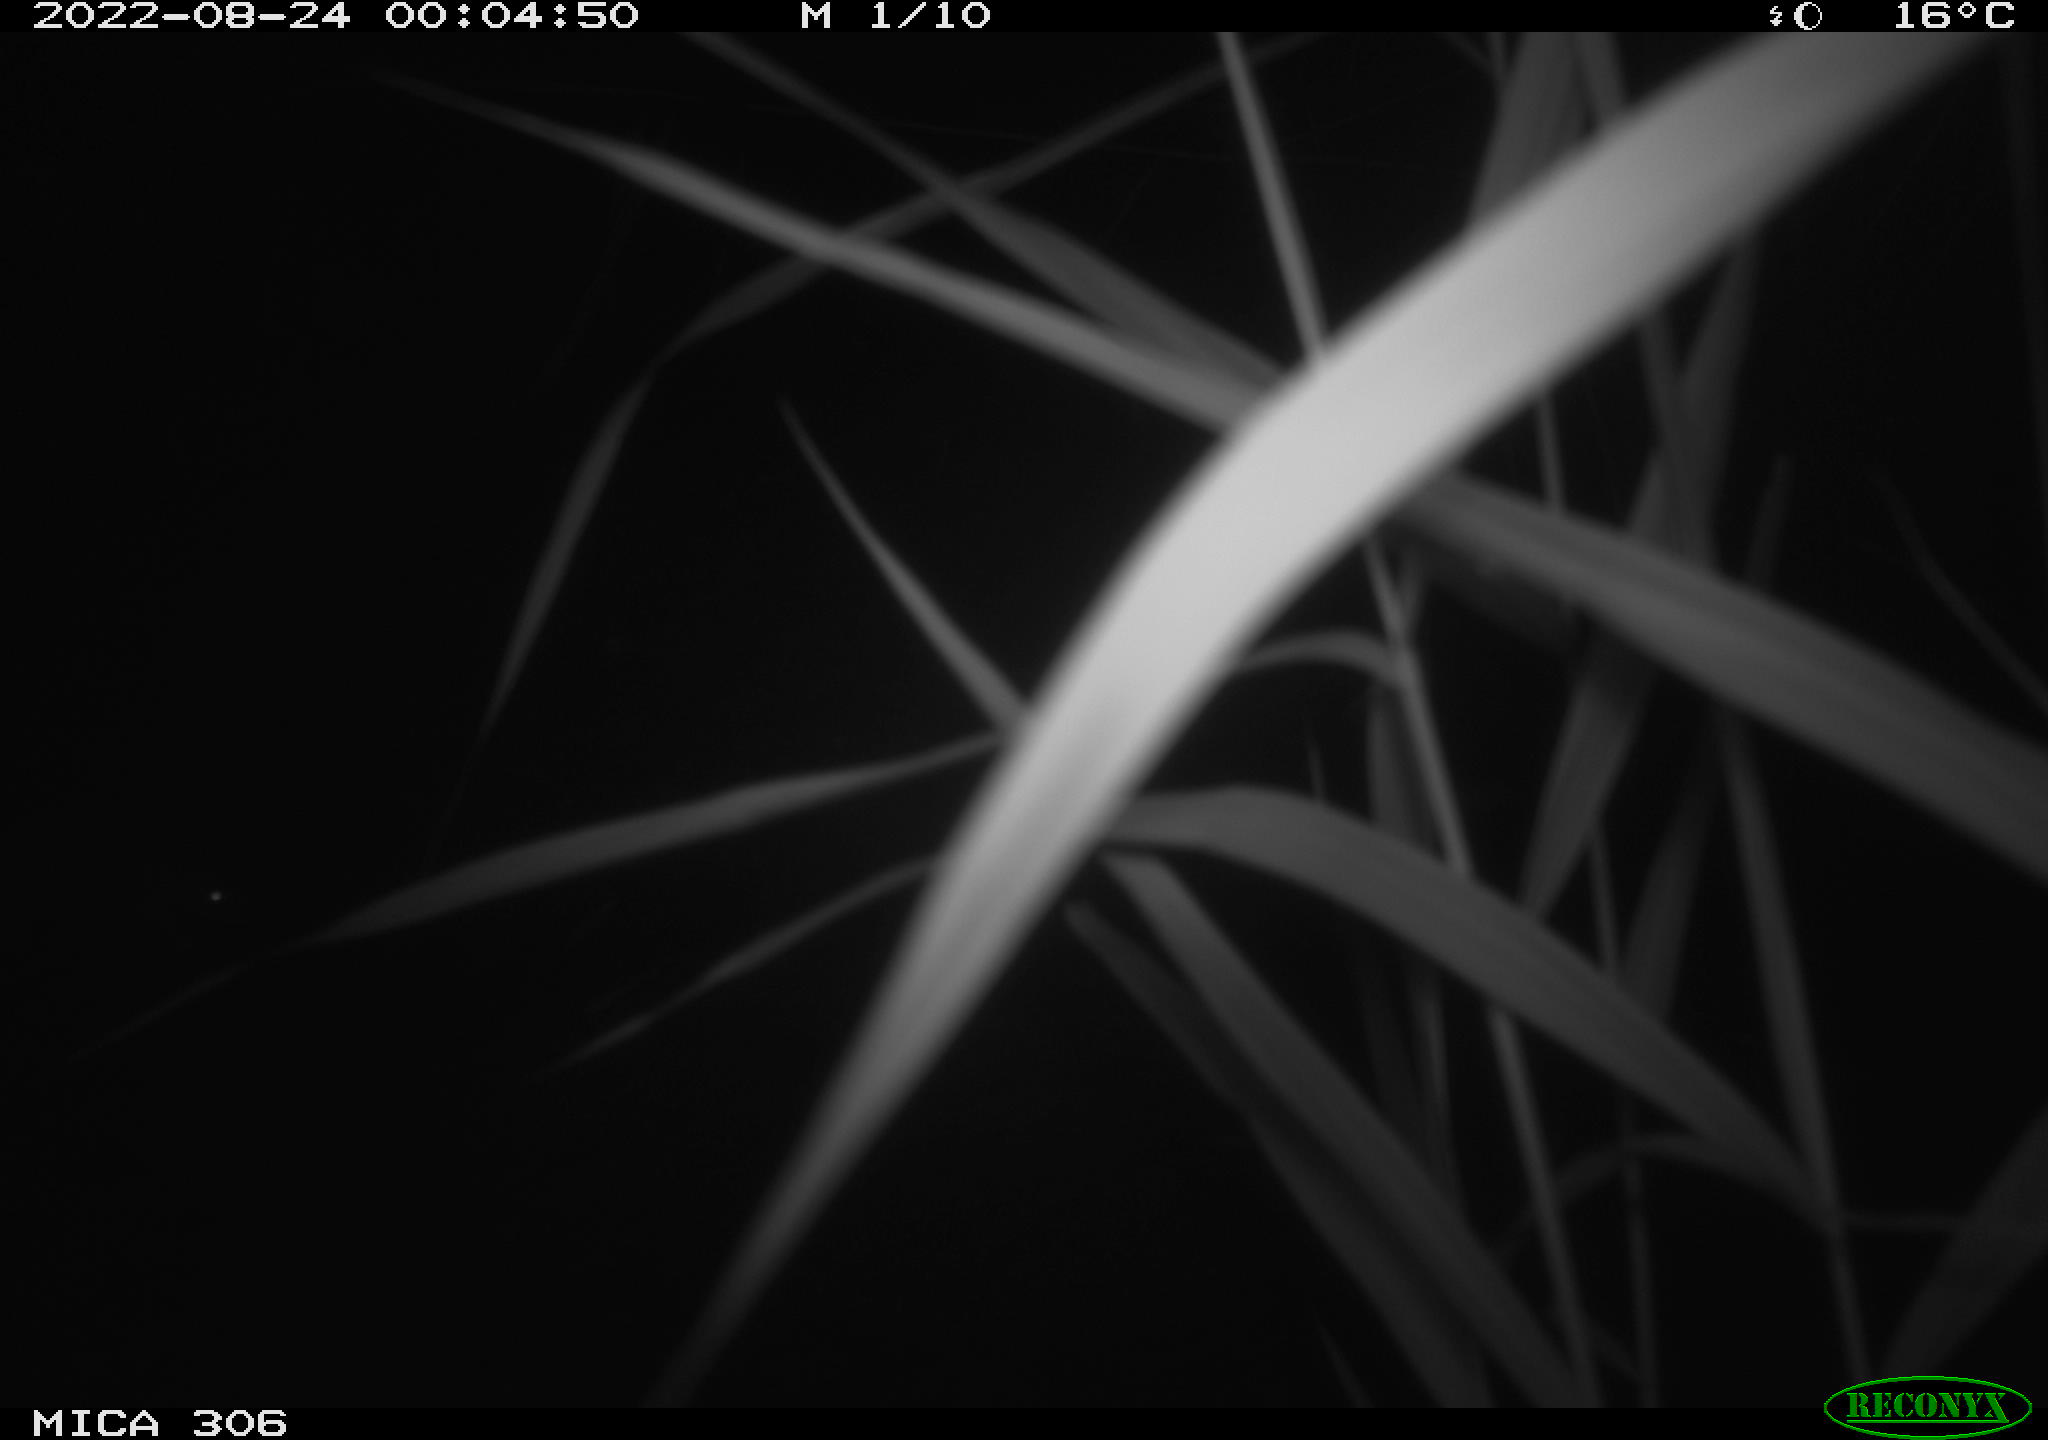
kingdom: Animalia
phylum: Chordata
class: Mammalia
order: Rodentia
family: Muridae
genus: Rattus
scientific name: Rattus norvegicus
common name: Brown rat
